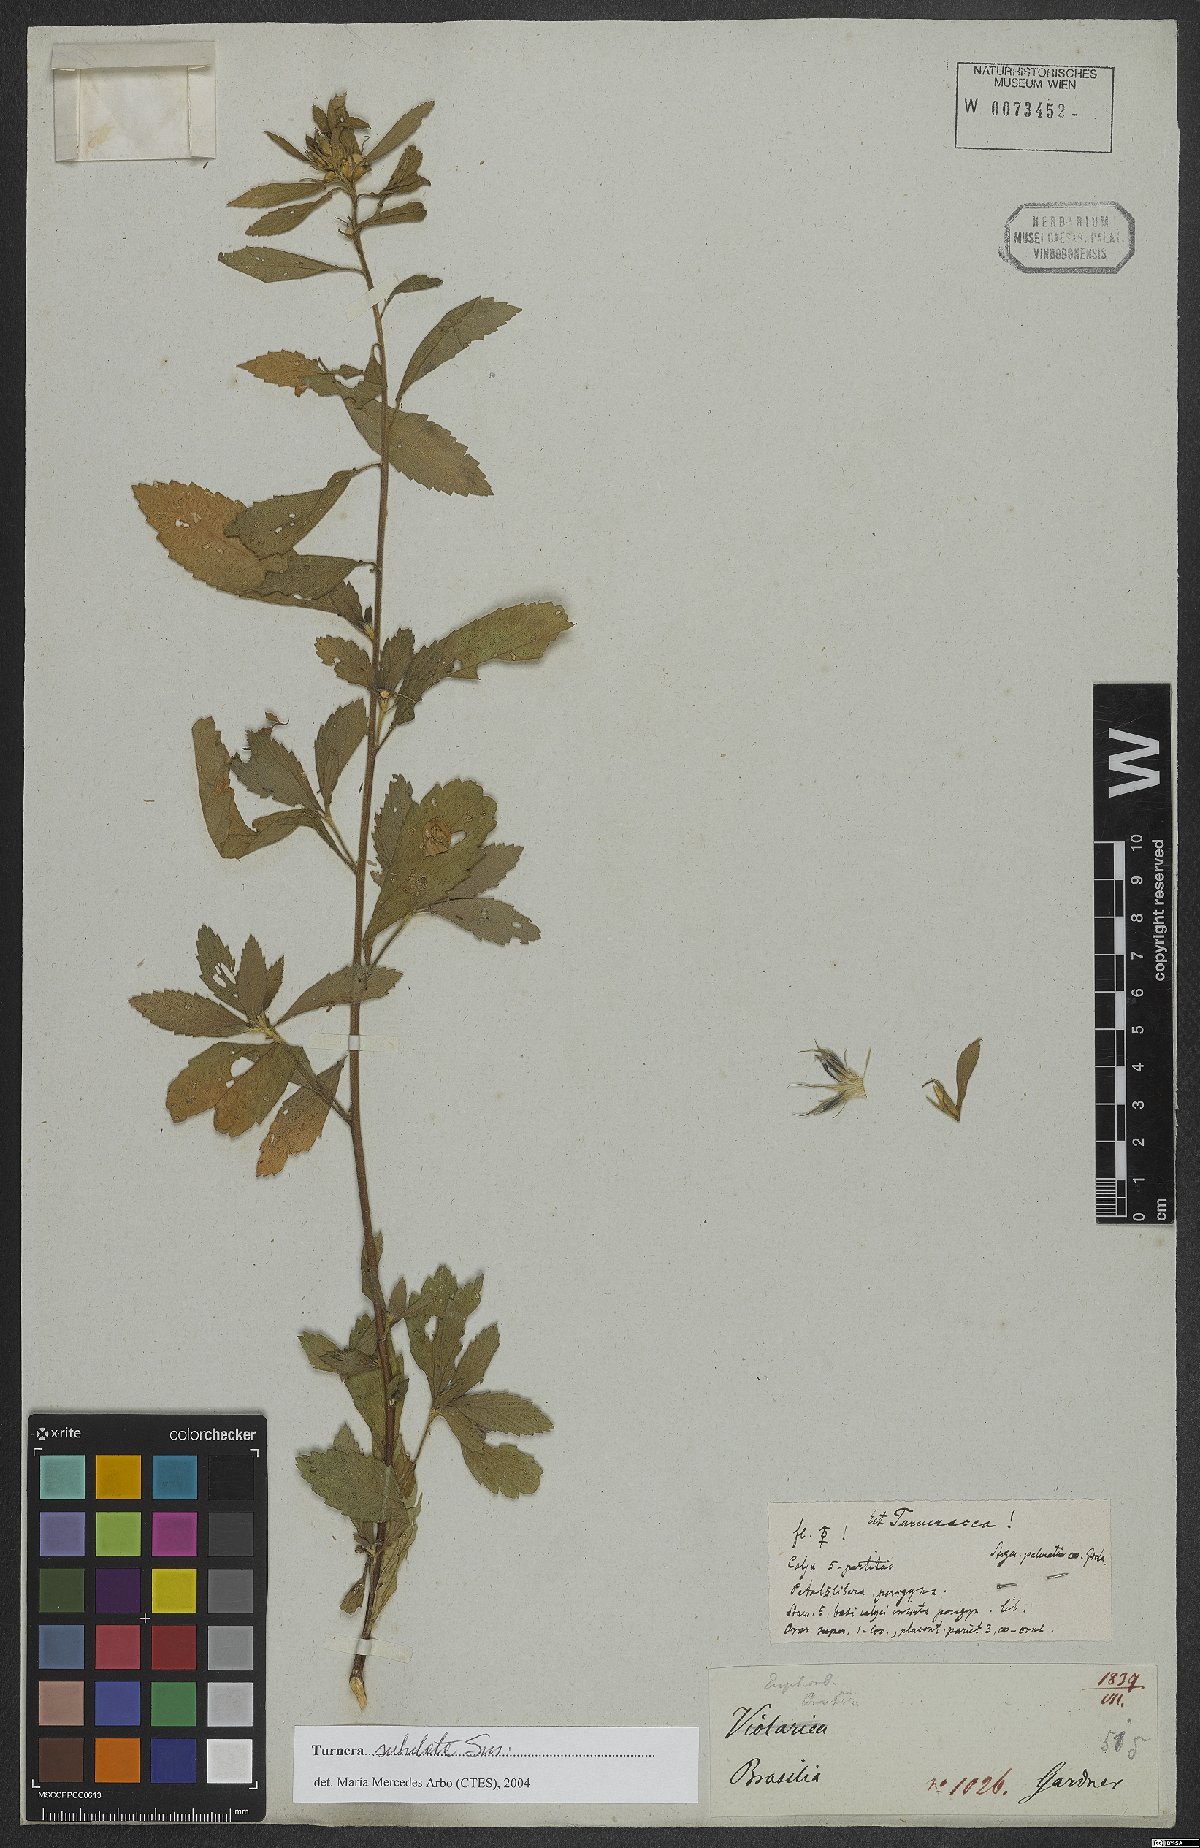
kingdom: Plantae
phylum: Tracheophyta
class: Magnoliopsida
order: Malpighiales
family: Turneraceae
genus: Turnera
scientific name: Turnera subulata
